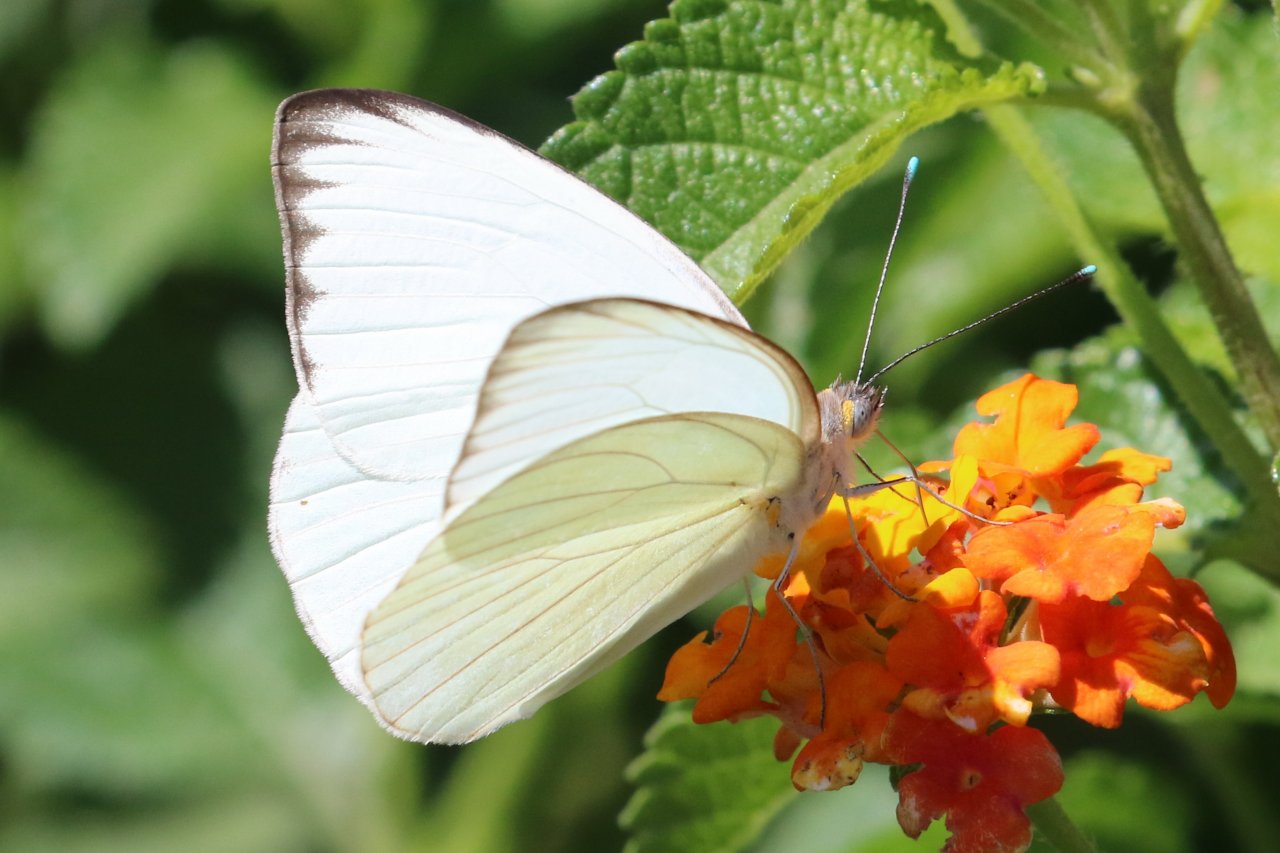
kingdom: Animalia
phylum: Arthropoda
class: Insecta
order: Lepidoptera
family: Pieridae
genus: Ascia
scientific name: Ascia monuste
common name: Great Southern White
